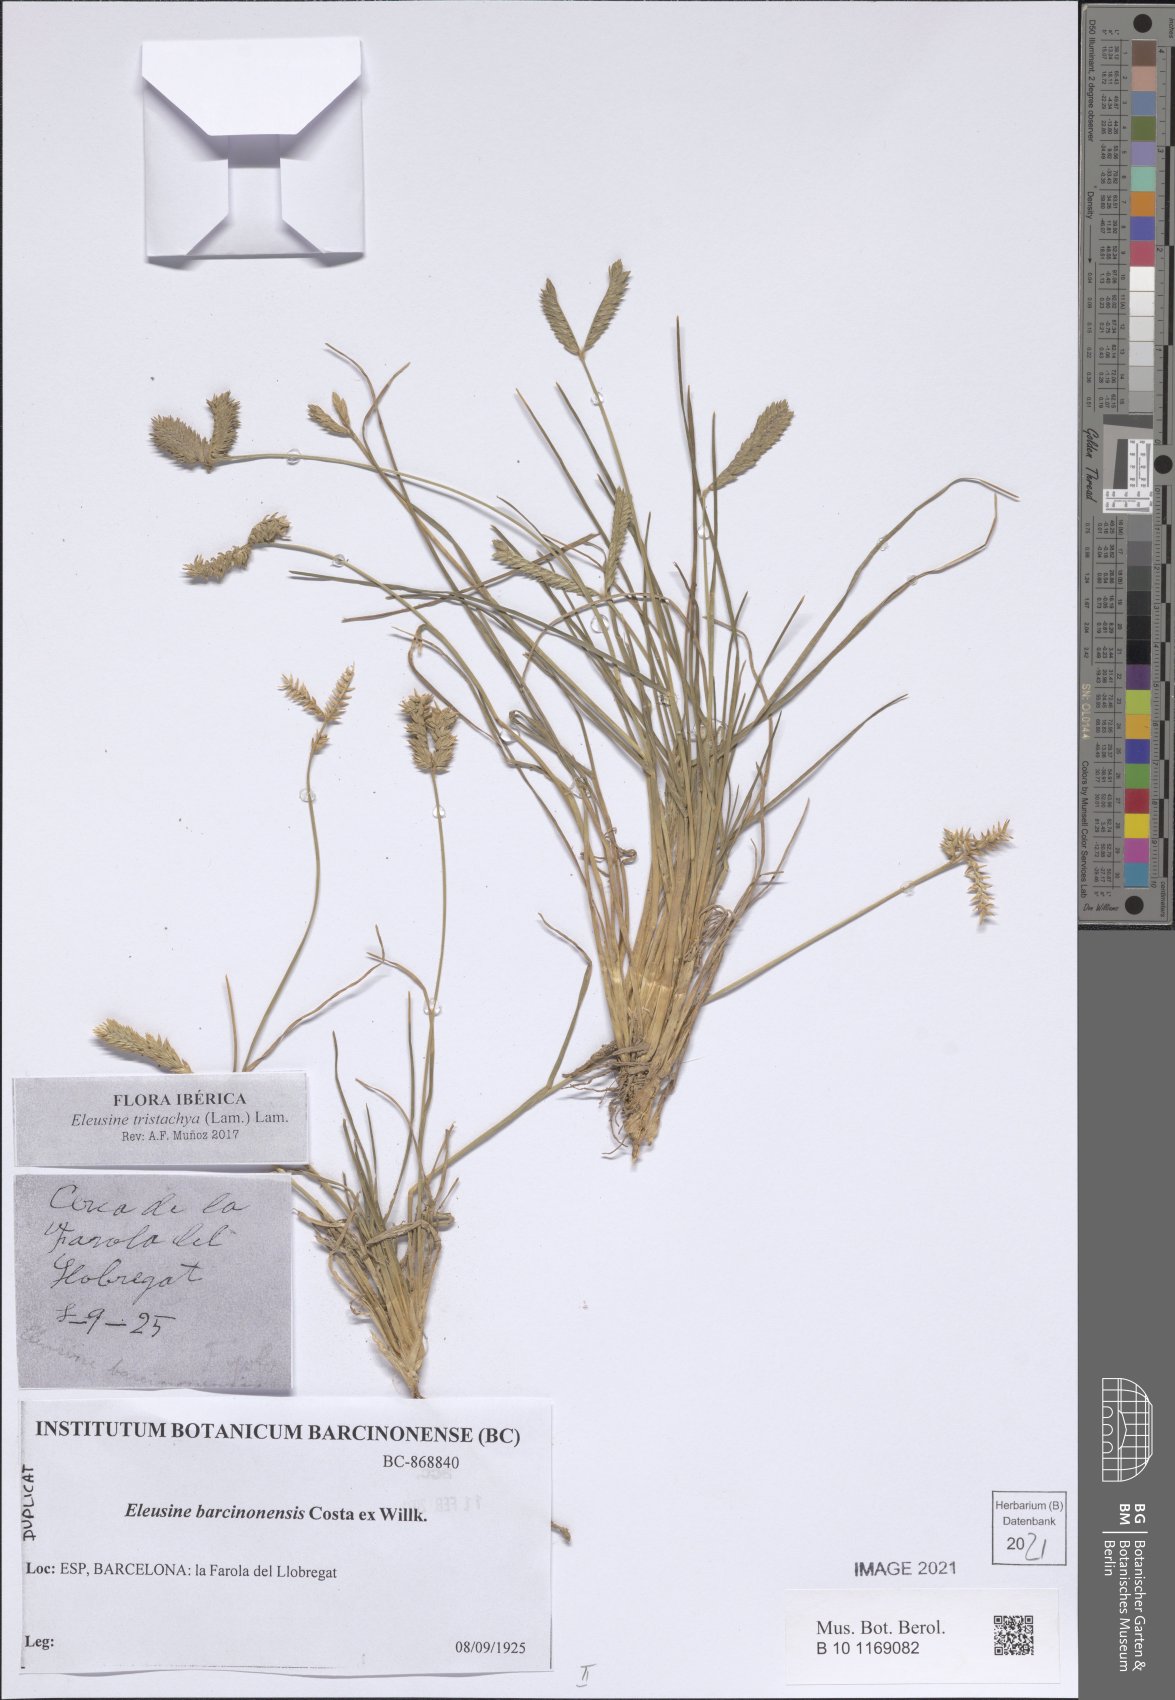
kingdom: Plantae
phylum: Tracheophyta
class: Liliopsida
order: Poales
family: Poaceae
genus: Eleusine
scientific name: Eleusine tristachya
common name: American yard-grass
